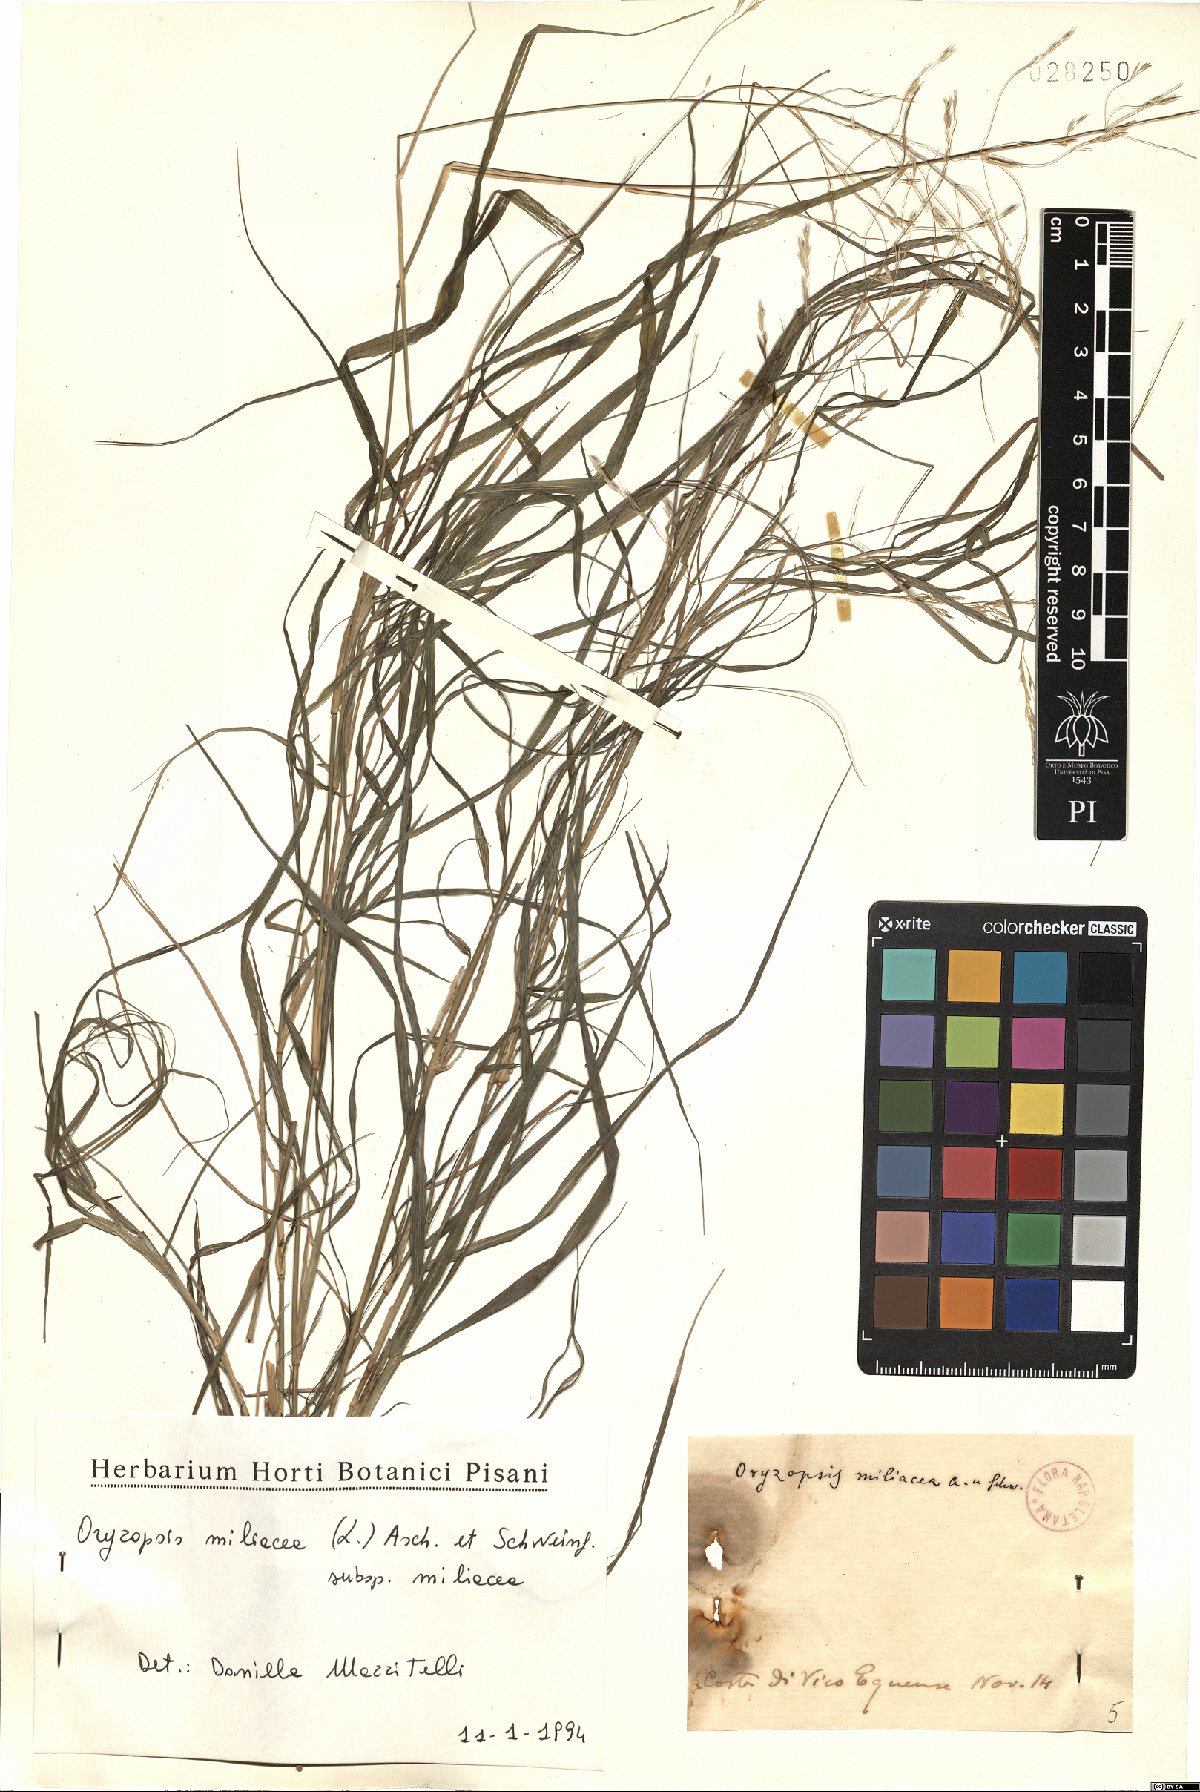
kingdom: Plantae
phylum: Tracheophyta
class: Liliopsida
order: Poales
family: Poaceae
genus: Oryzopsis
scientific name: Oryzopsis miliacea
